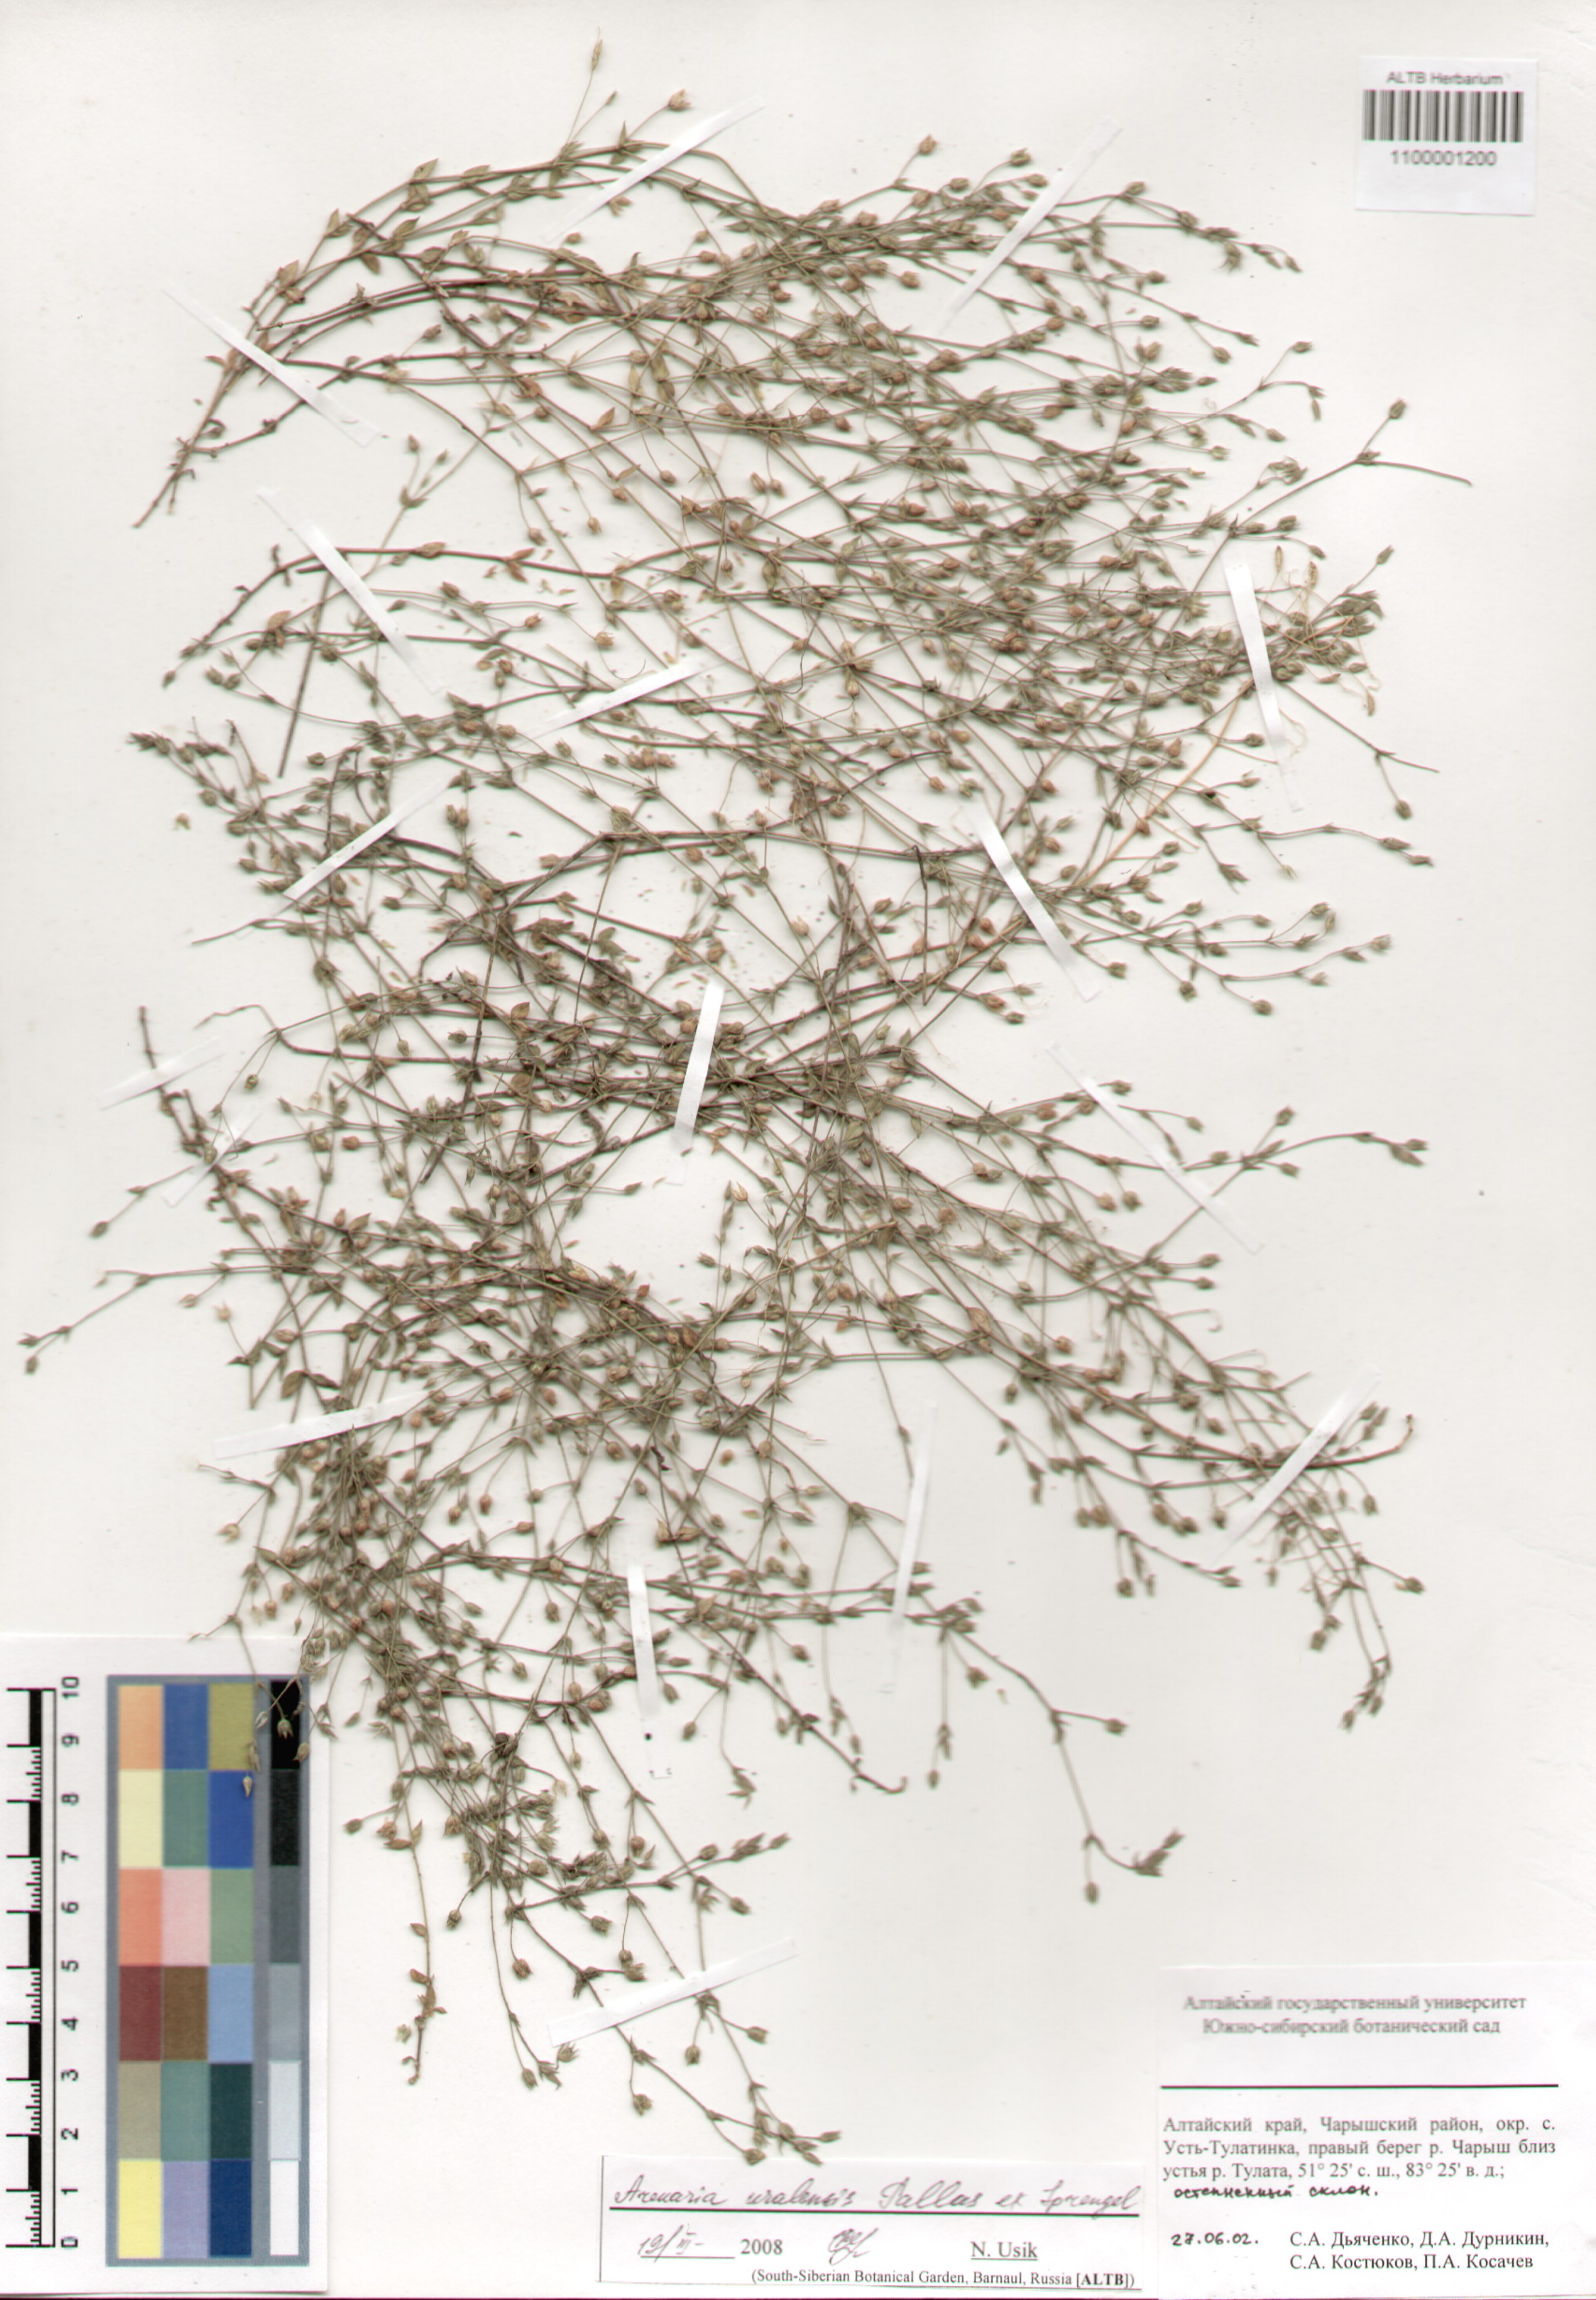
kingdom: Plantae
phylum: Tracheophyta
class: Magnoliopsida
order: Caryophyllales
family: Caryophyllaceae
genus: Arenaria
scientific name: Arenaria serpyllifolia
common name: Thyme-leaved sandwort
